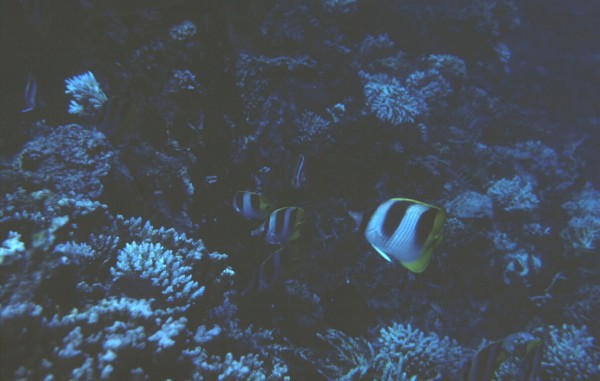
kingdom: Animalia
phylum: Chordata
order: Perciformes
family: Chaetodontidae
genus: Chaetodon
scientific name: Chaetodon falcula
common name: Blackwedged butterflyfish
